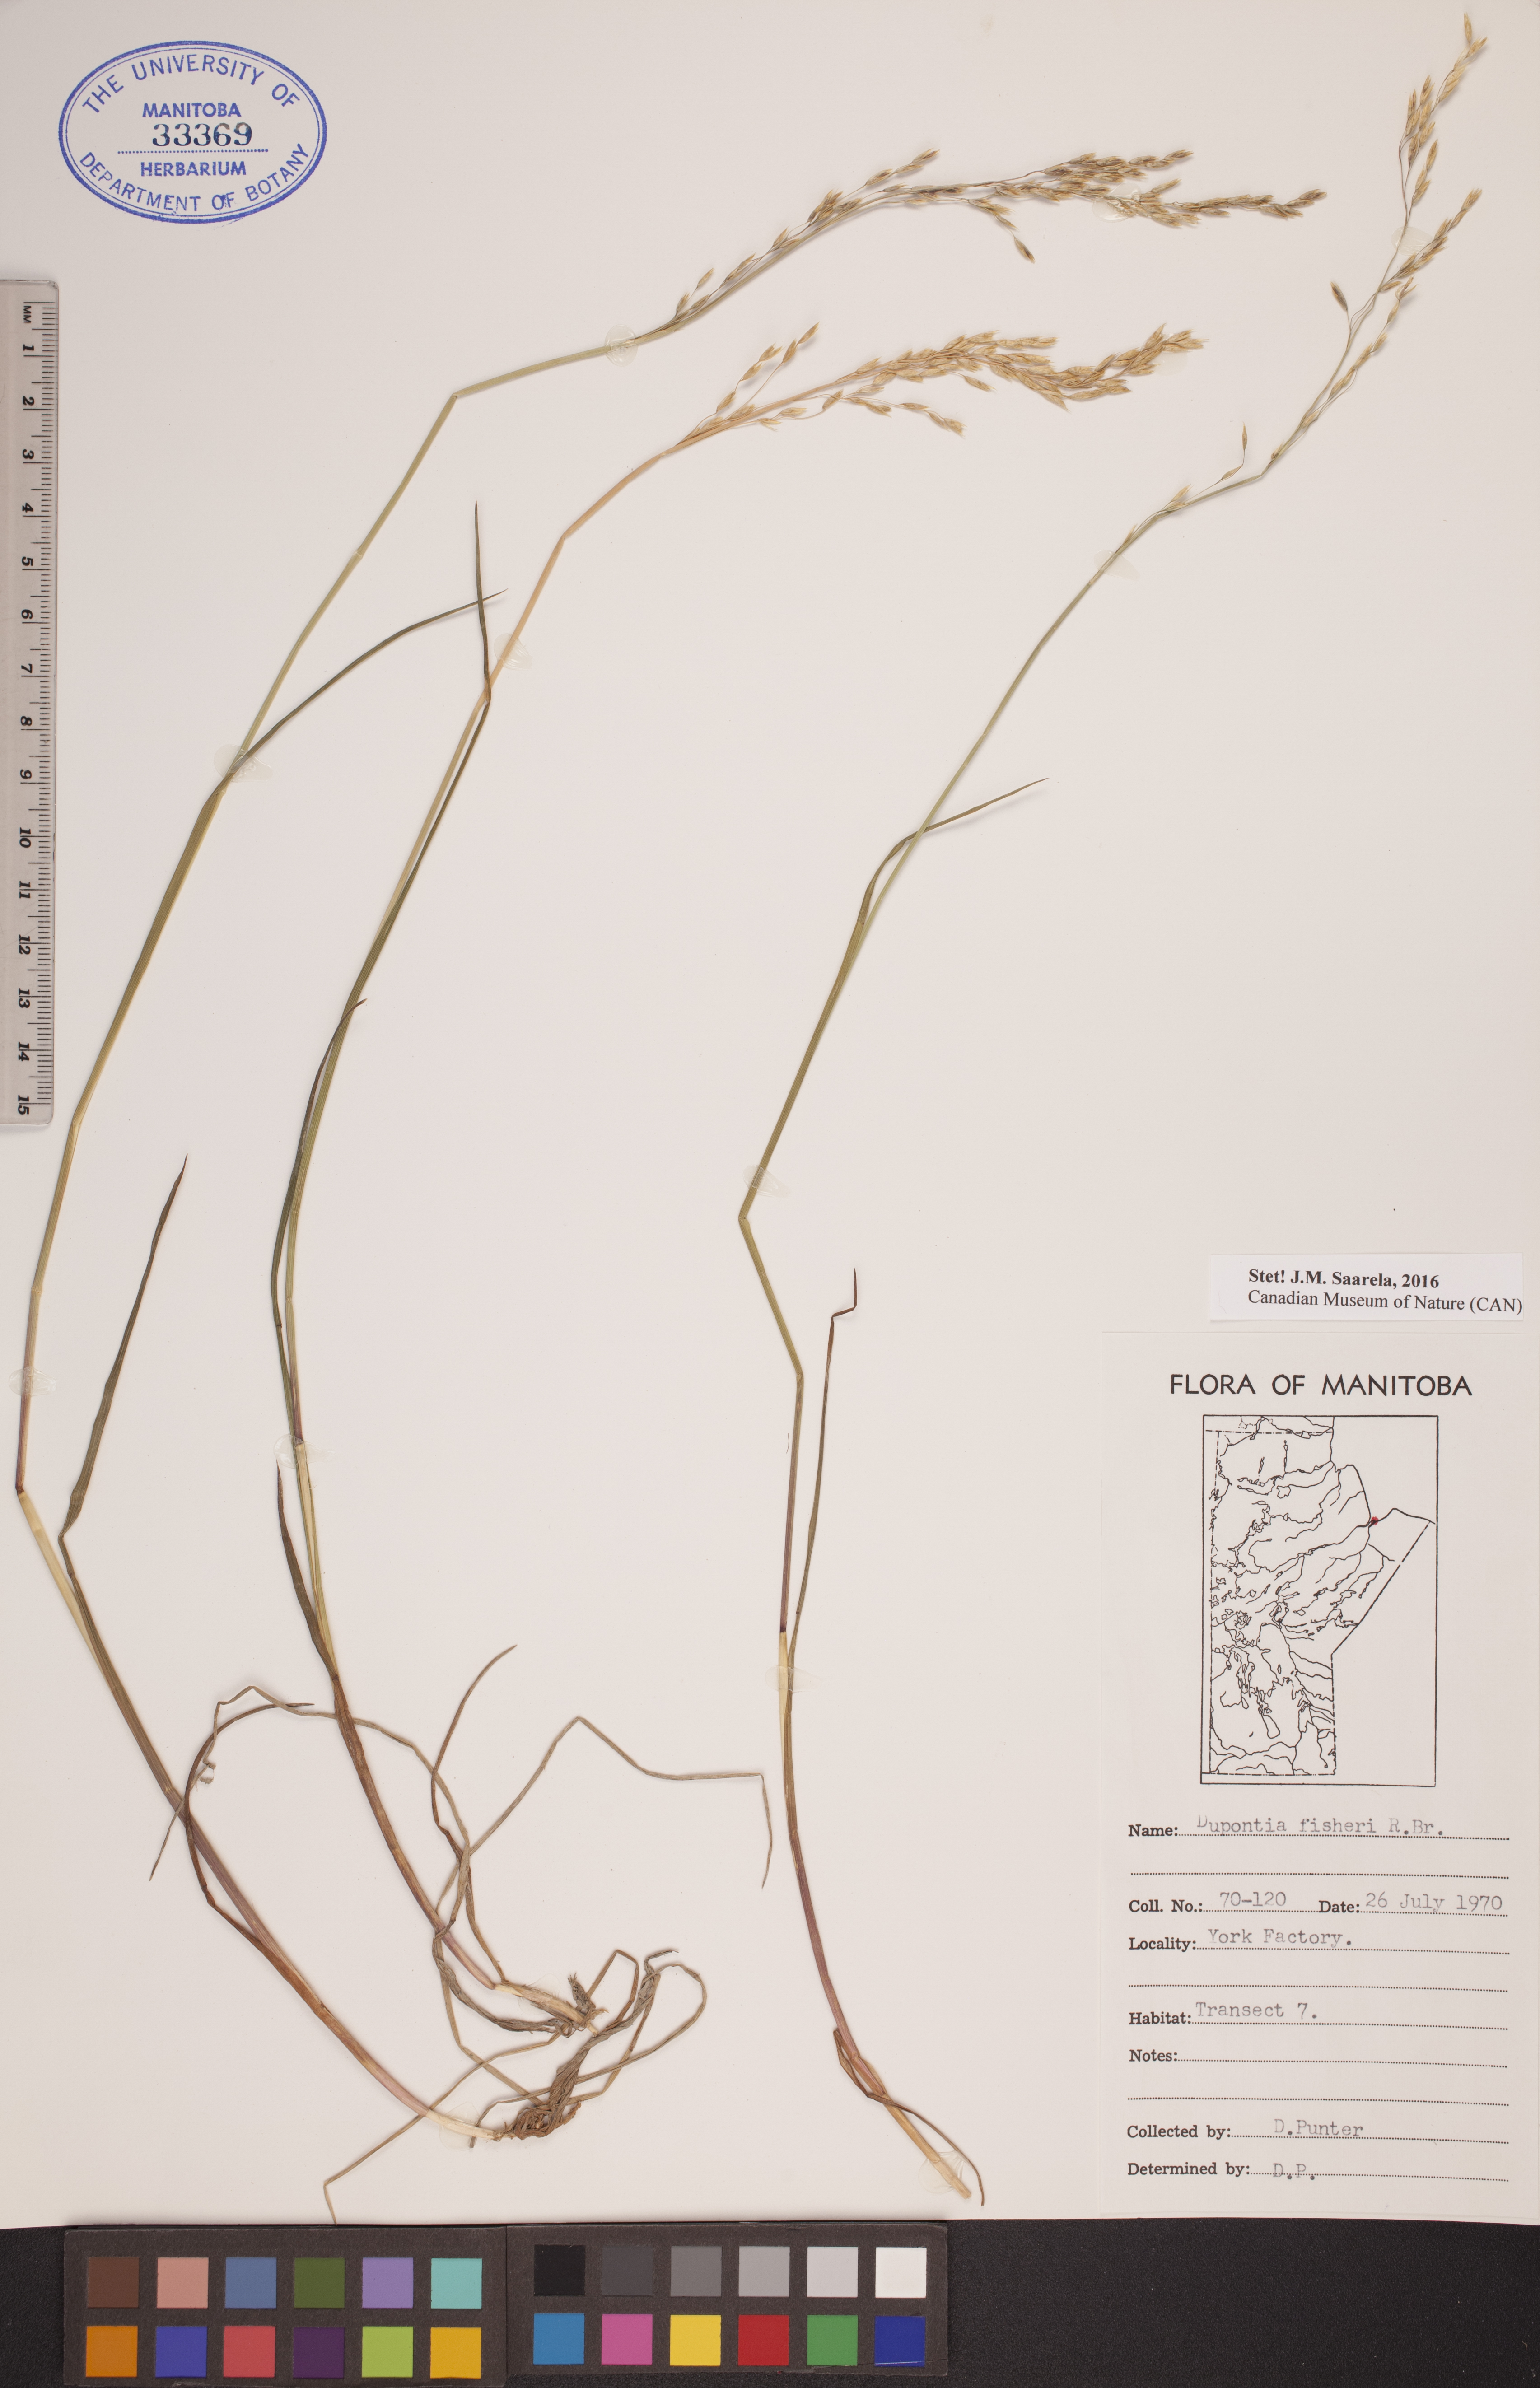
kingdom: Plantae
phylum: Tracheophyta
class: Liliopsida
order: Poales
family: Poaceae
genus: Dupontia
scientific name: Dupontia fisheri
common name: Tundra grass
